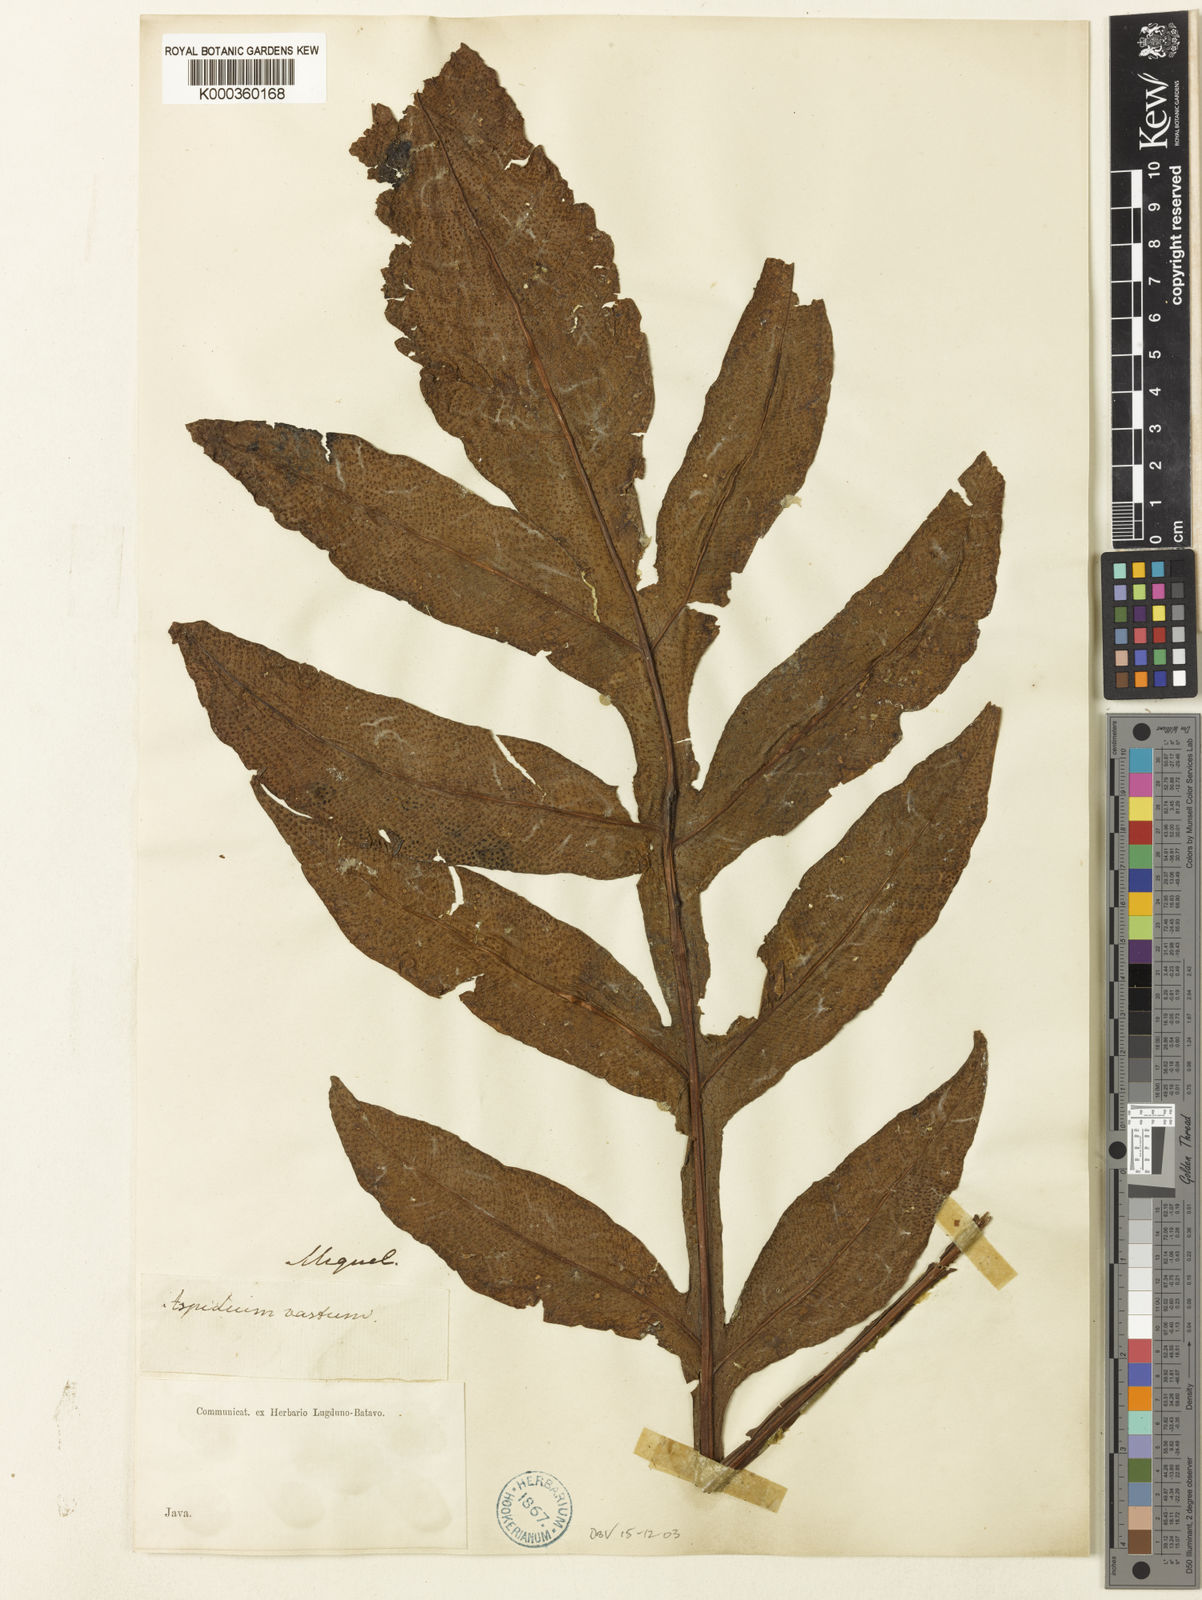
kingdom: Plantae
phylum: Tracheophyta
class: Polypodiopsida
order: Polypodiales
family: Tectariaceae
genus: Tectaria
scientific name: Tectaria vasta
